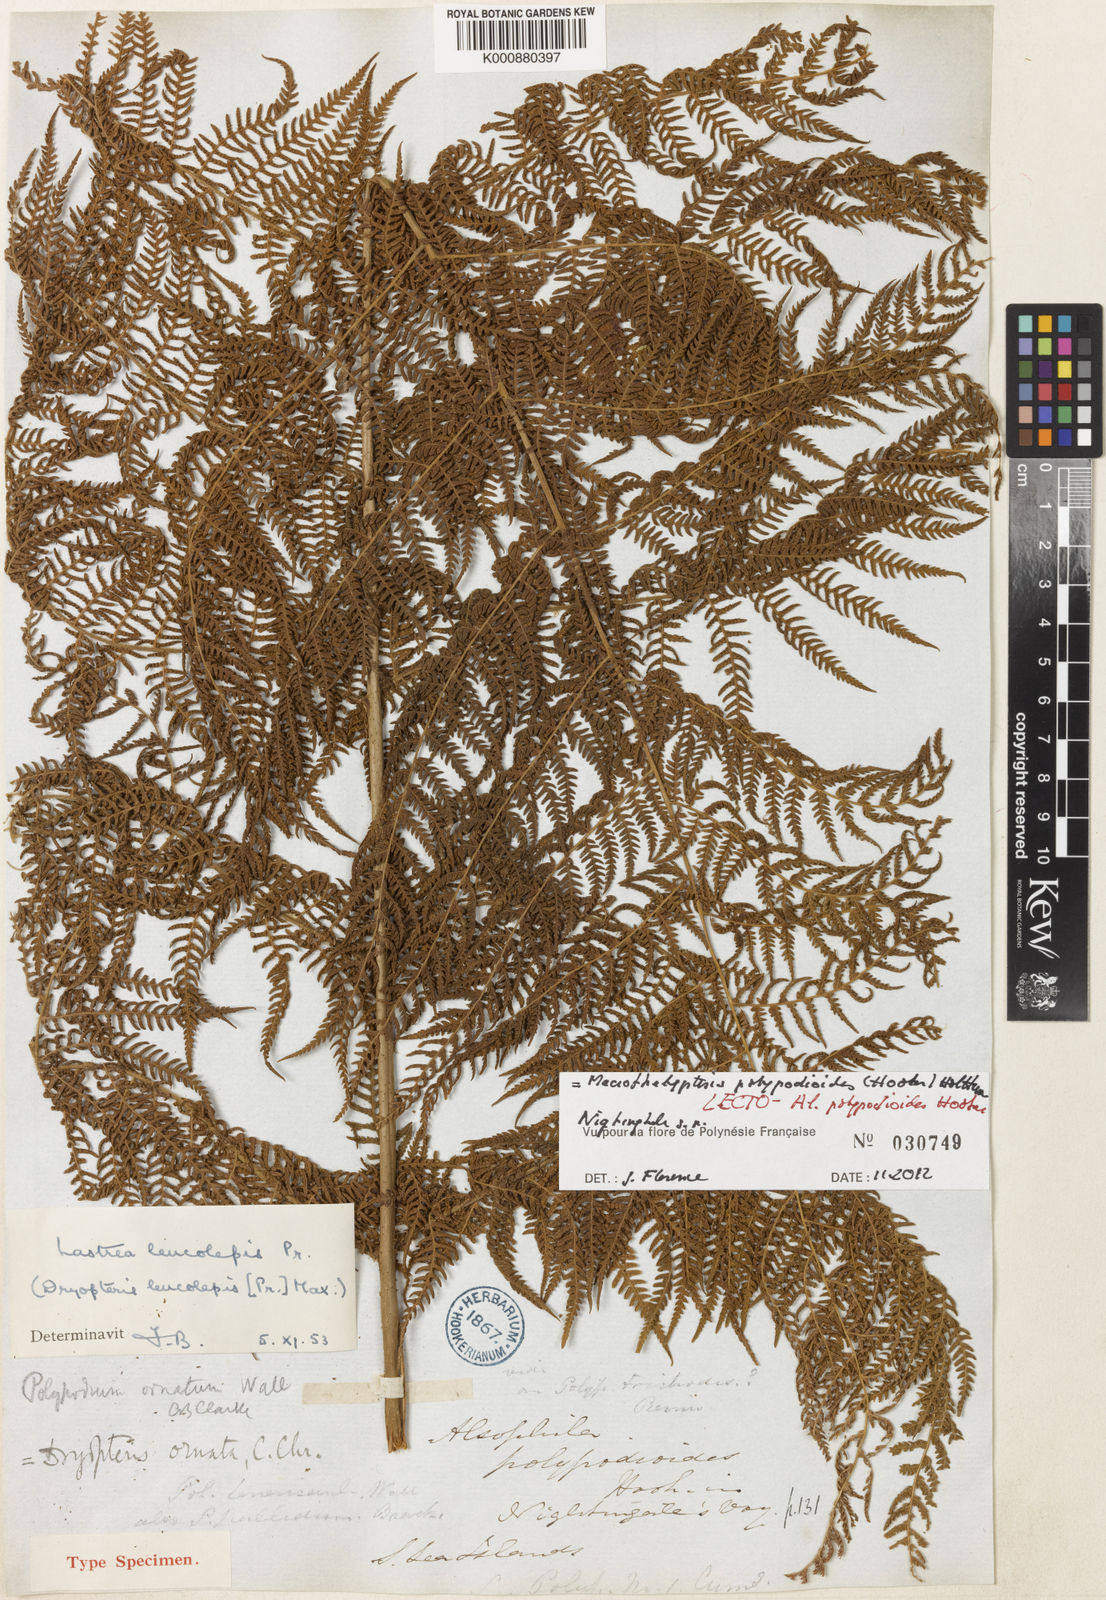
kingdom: Plantae
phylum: Tracheophyta
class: Polypodiopsida
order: Polypodiales
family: Thelypteridaceae
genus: Macrothelypteris
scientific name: Macrothelypteris polypodioides
